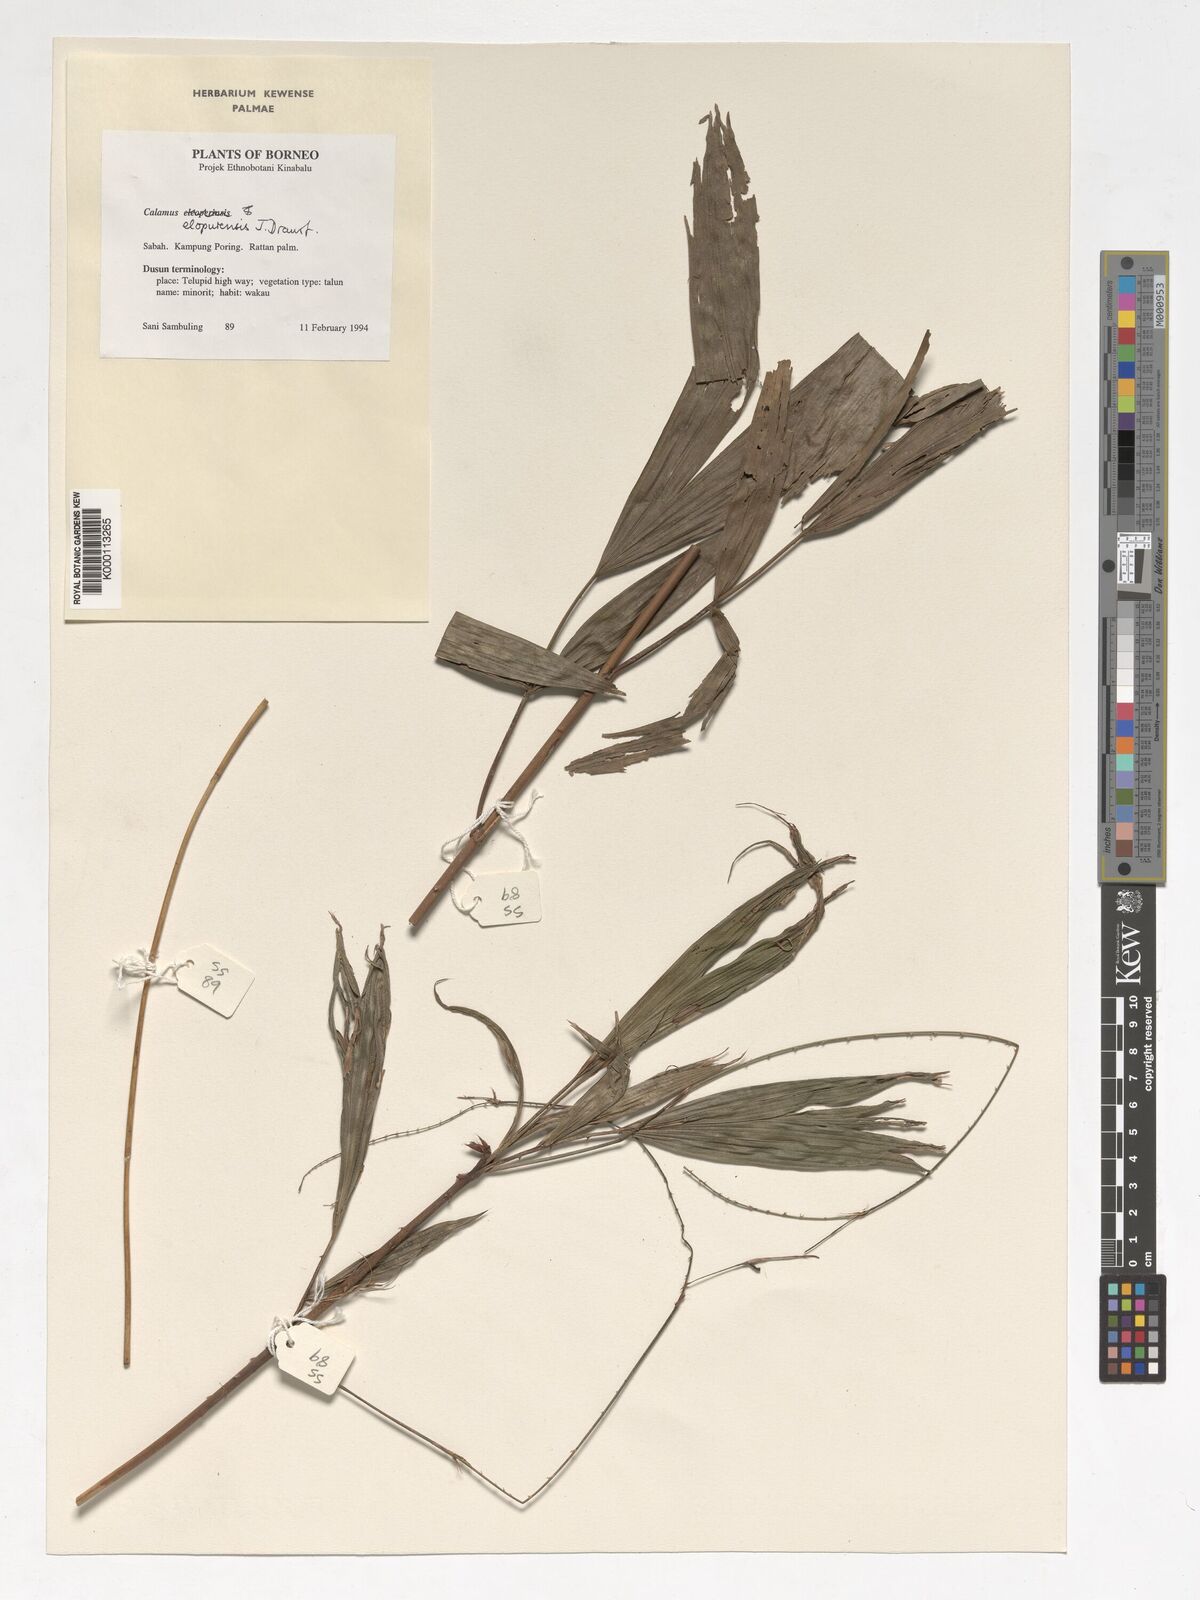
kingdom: Plantae
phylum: Tracheophyta
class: Liliopsida
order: Arecales
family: Arecaceae
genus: Calamus
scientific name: Calamus javensis
